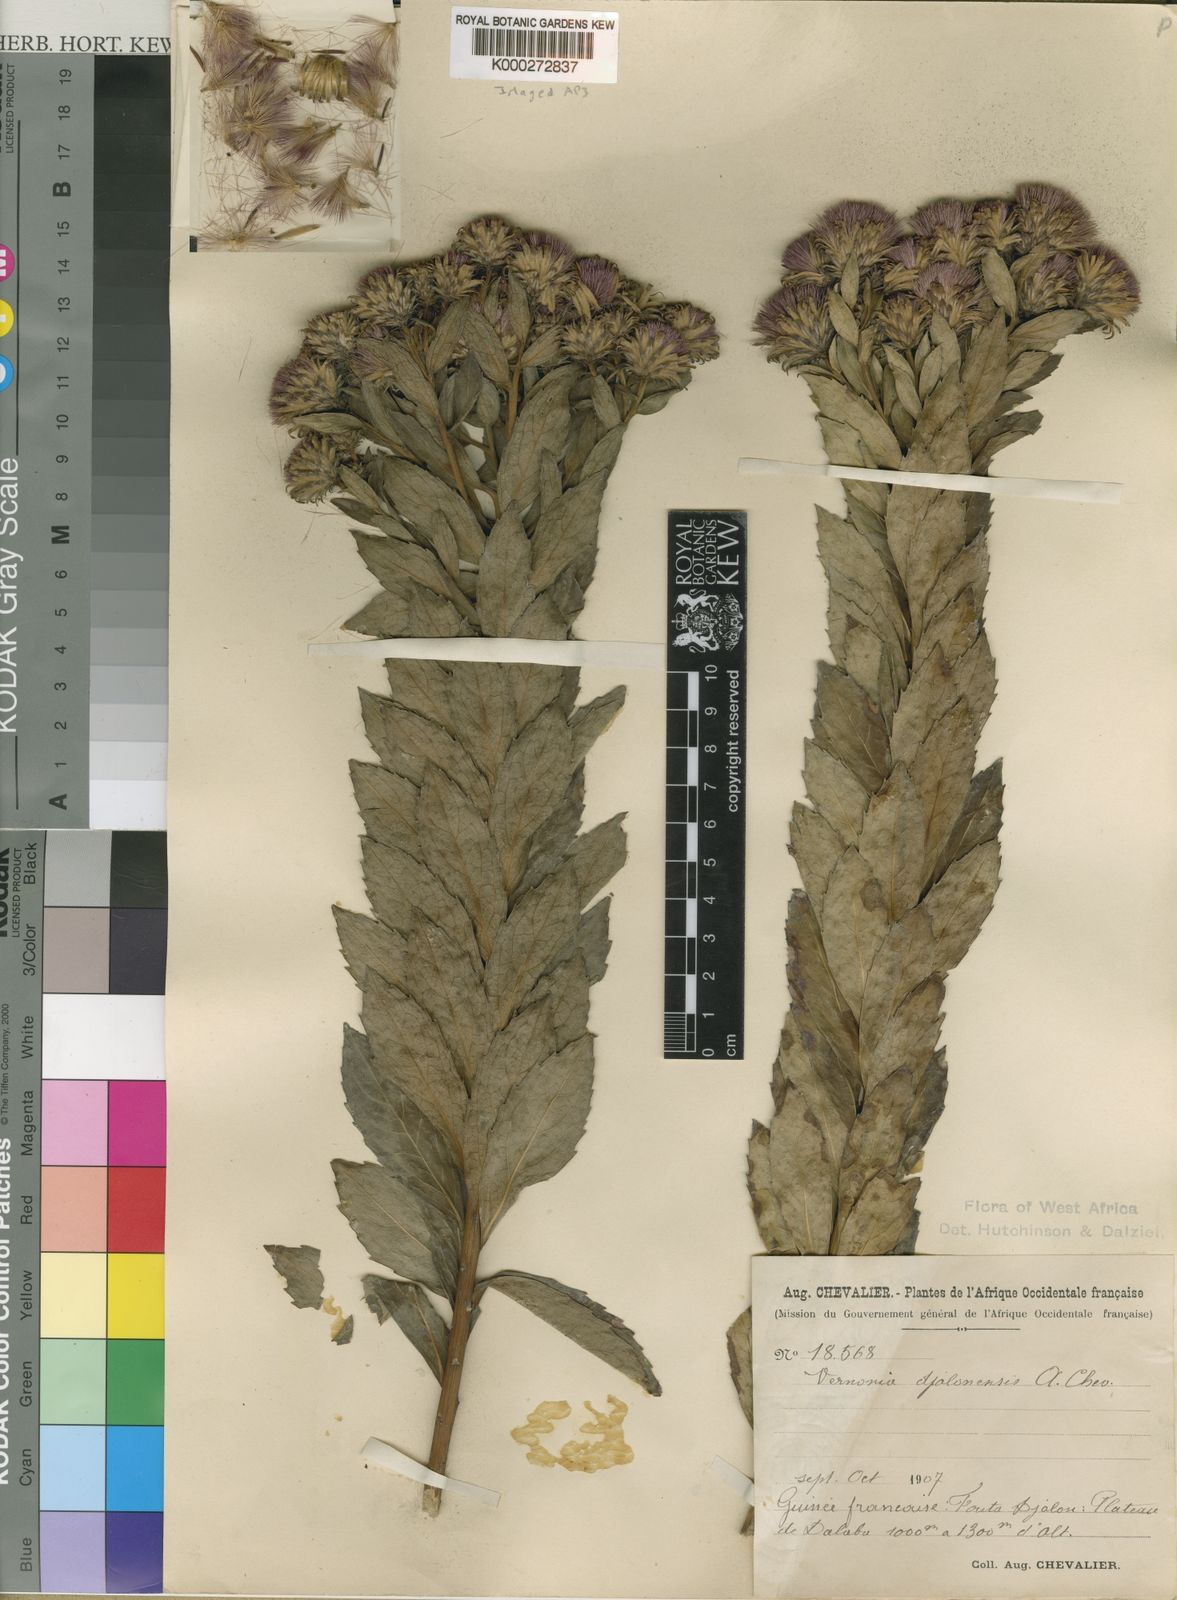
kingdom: Plantae
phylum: Tracheophyta
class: Magnoliopsida
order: Asterales
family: Asteraceae
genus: Vernonia
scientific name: Vernonia djalonensis
